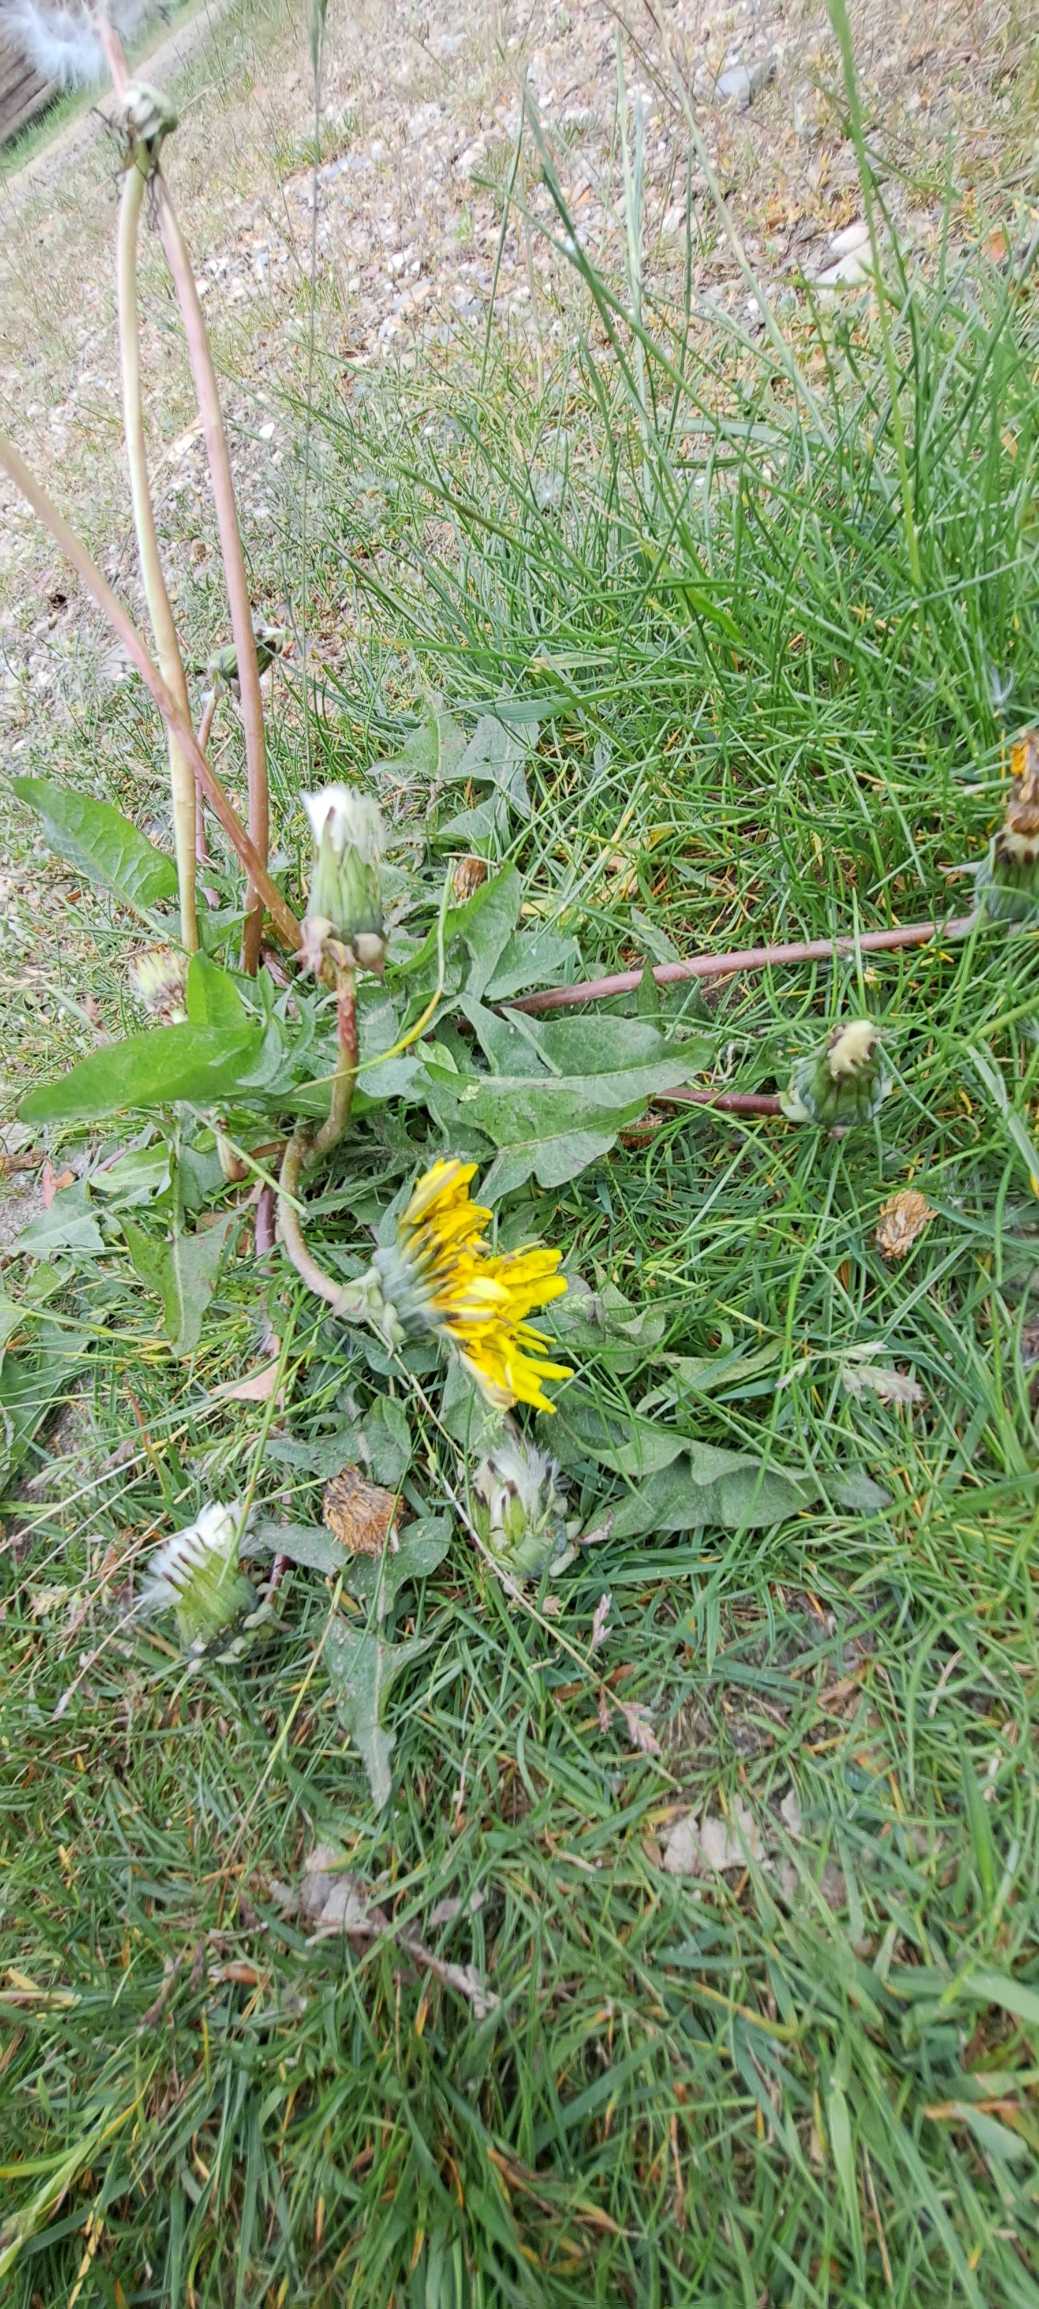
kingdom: Plantae
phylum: Tracheophyta
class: Magnoliopsida
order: Asterales
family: Asteraceae
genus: Taraxacum
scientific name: Taraxacum
